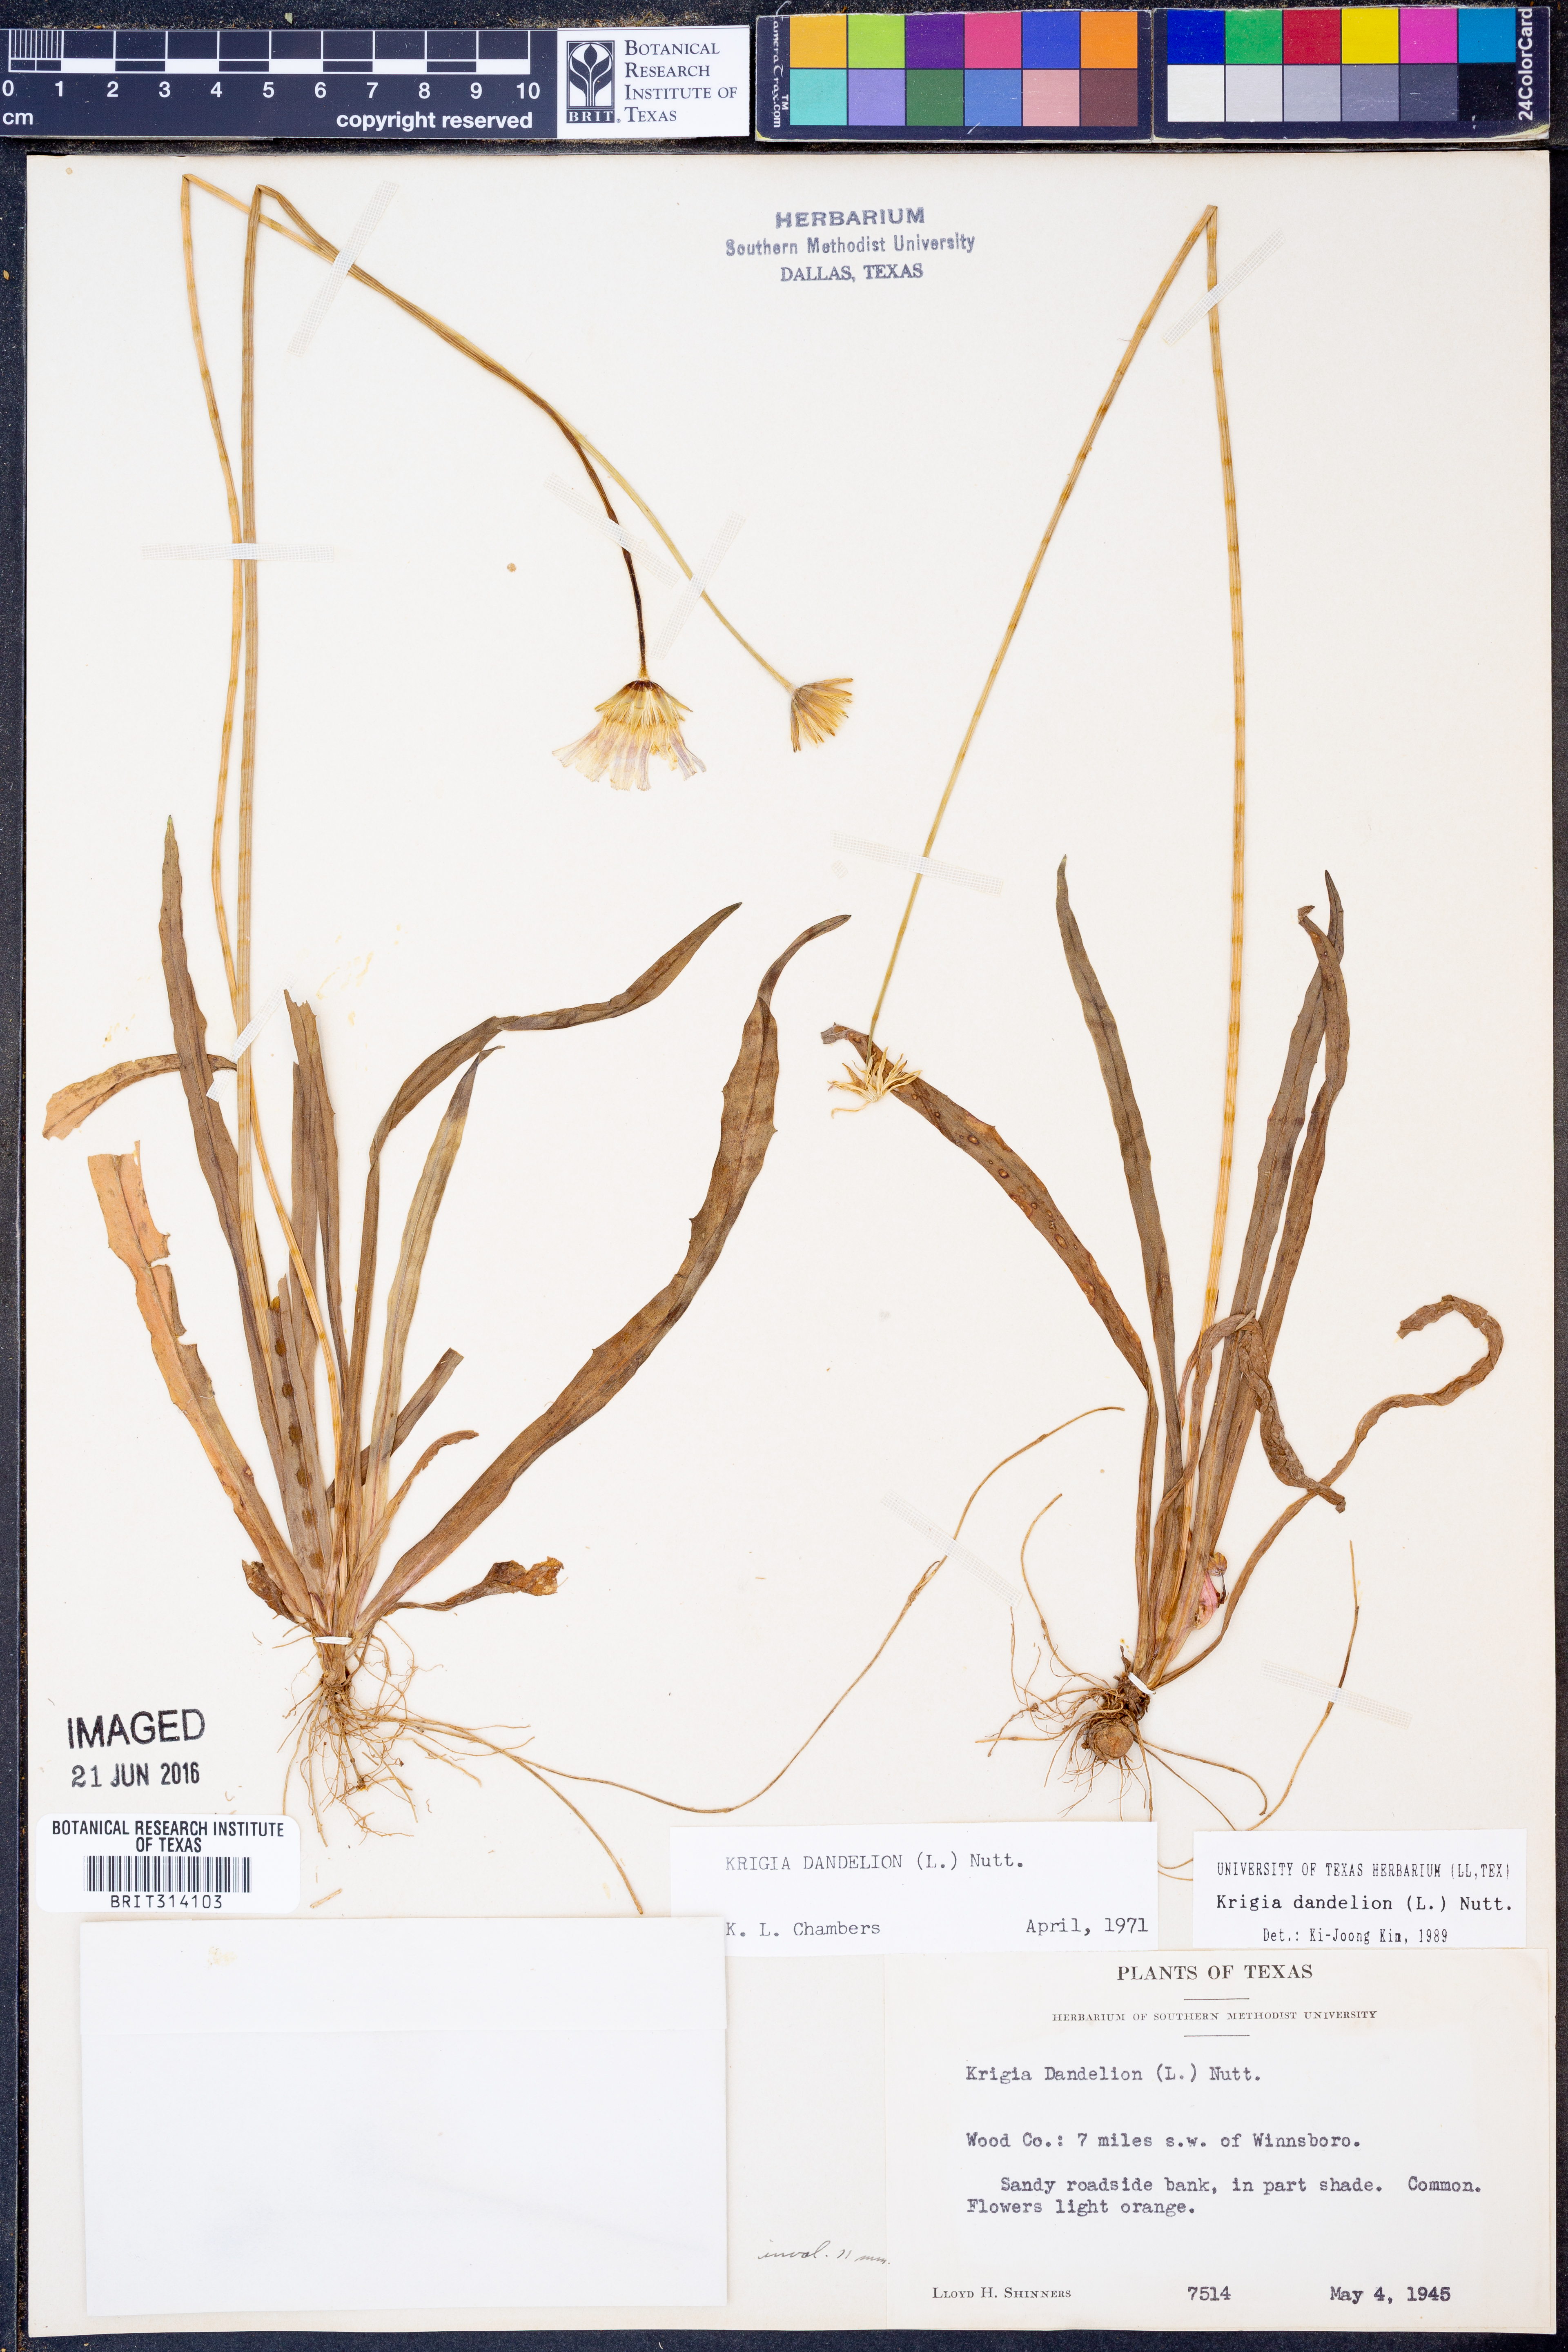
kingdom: Plantae
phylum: Tracheophyta
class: Magnoliopsida
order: Asterales
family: Asteraceae
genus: Krigia
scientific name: Krigia dandelion
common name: Colonial dwarf-dandelion
